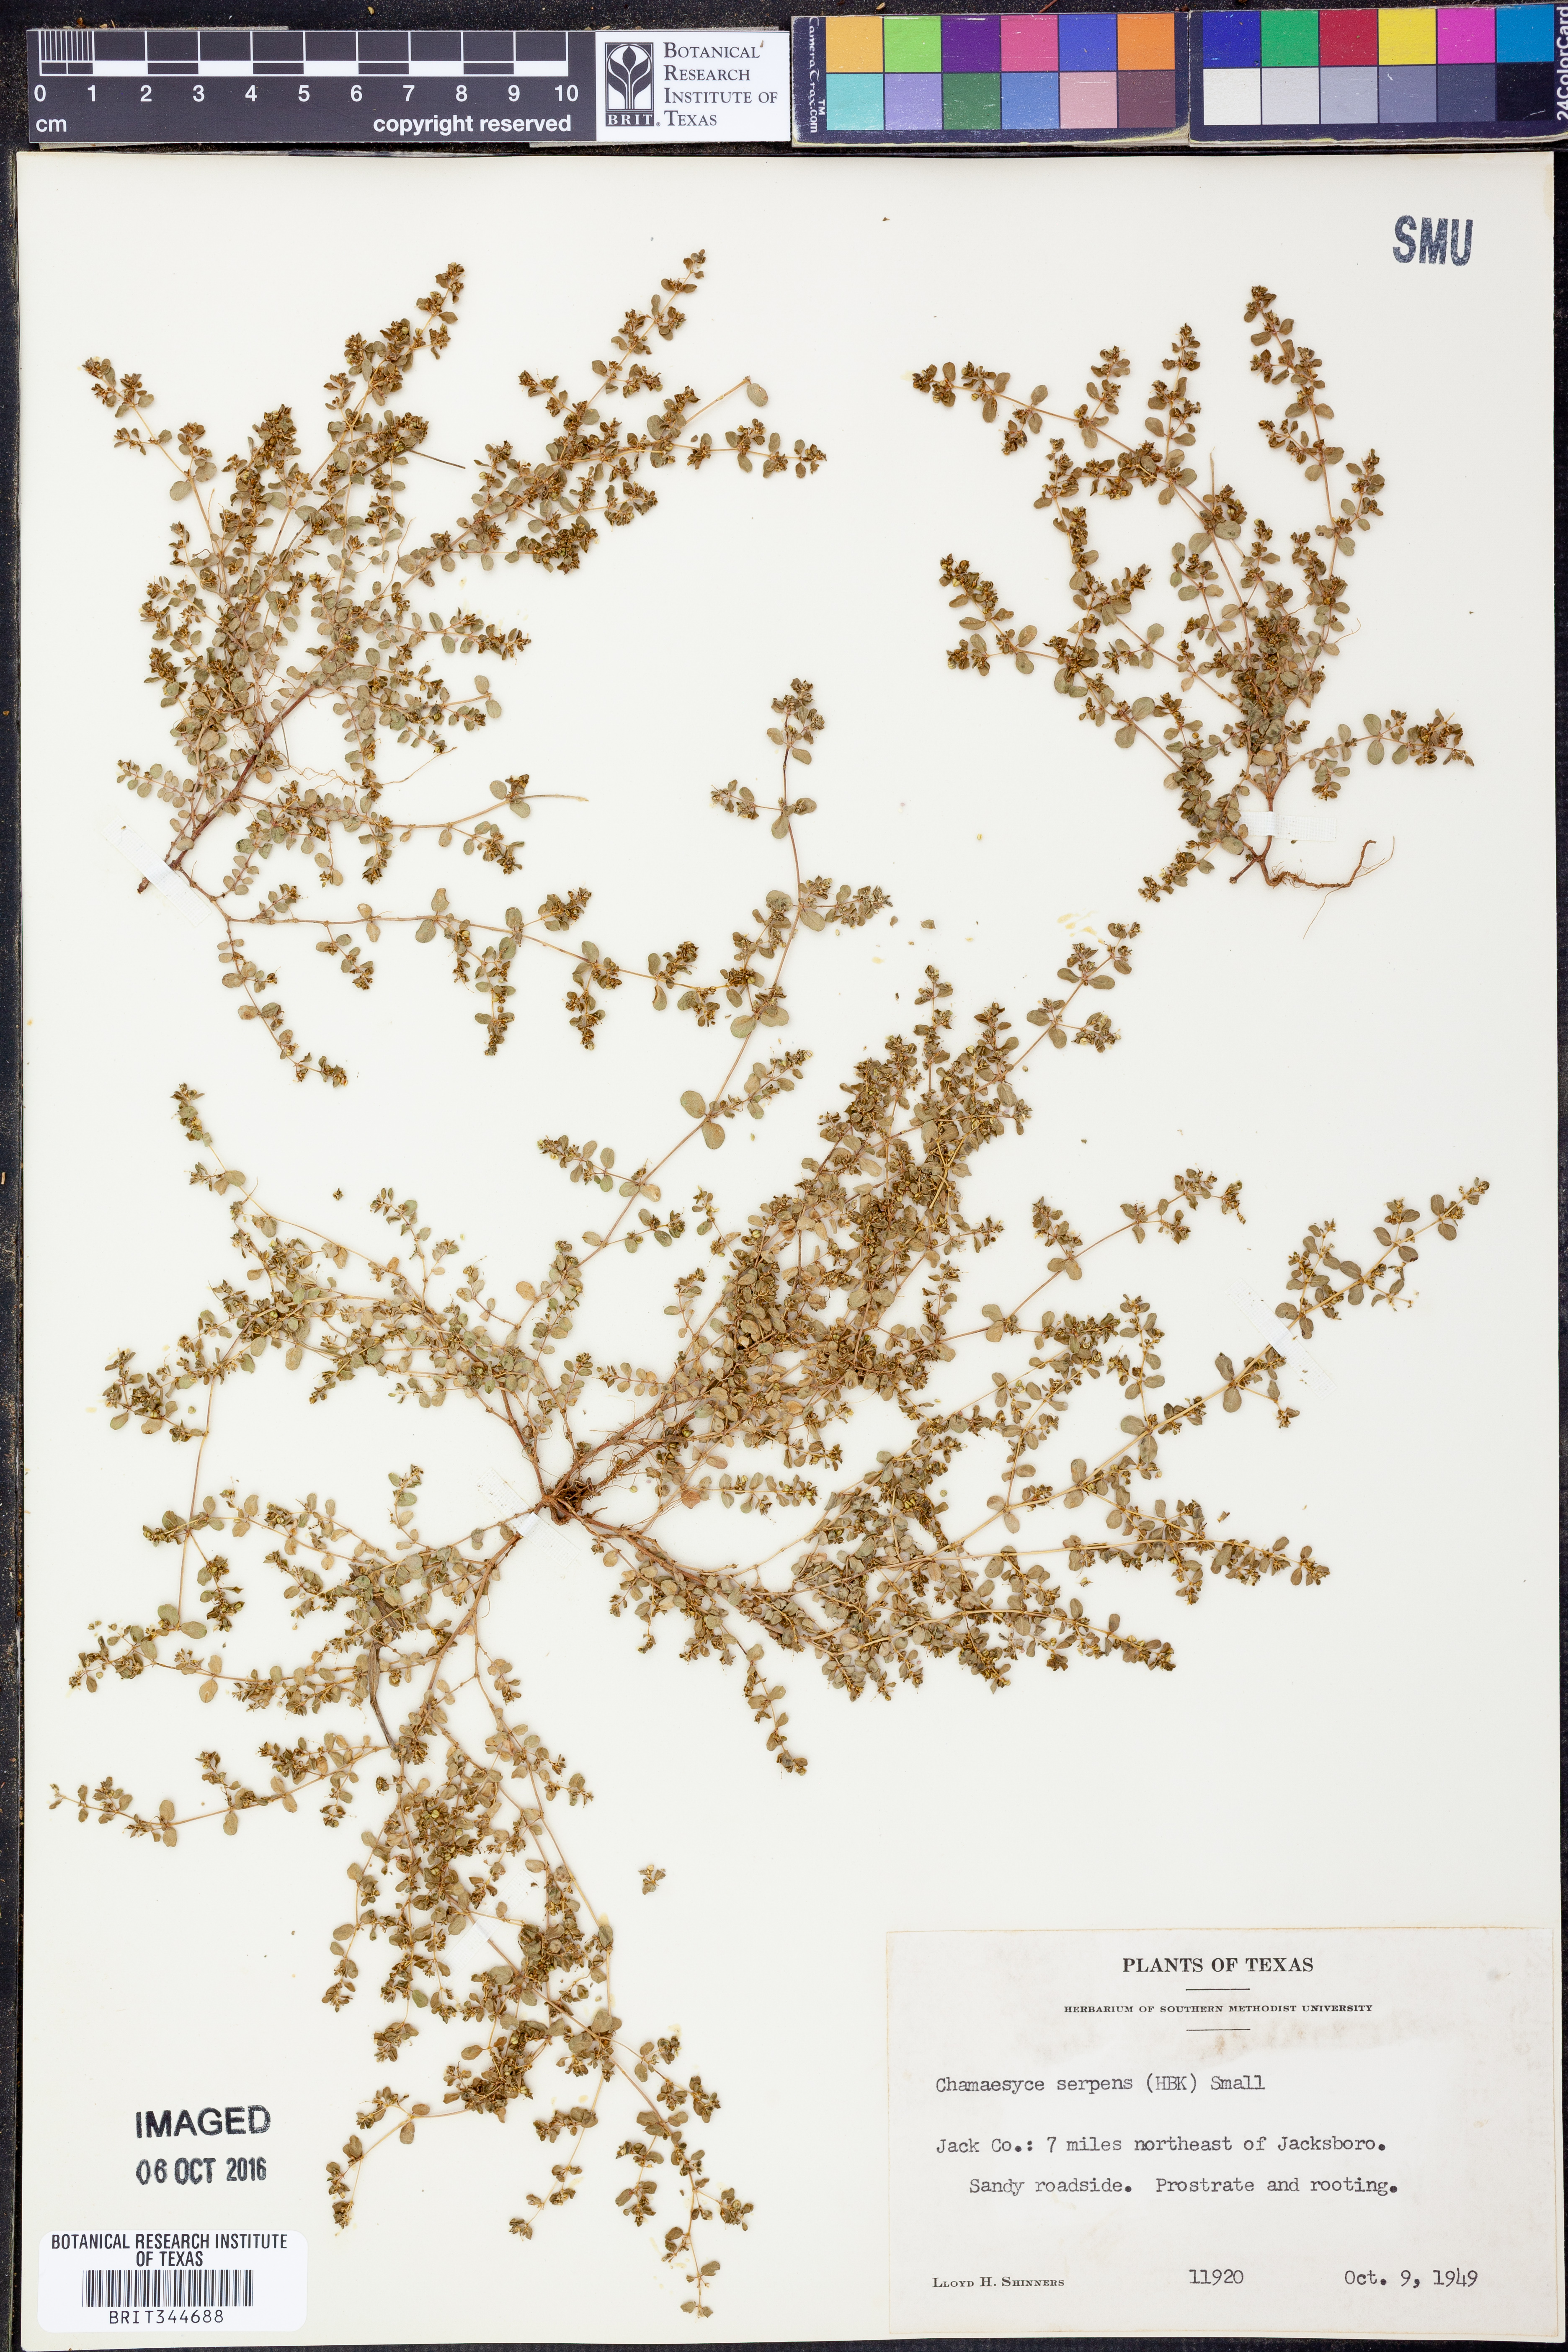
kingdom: Plantae
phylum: Tracheophyta
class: Magnoliopsida
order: Malpighiales
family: Euphorbiaceae
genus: Euphorbia
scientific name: Euphorbia serpens
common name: Matted sandmat
